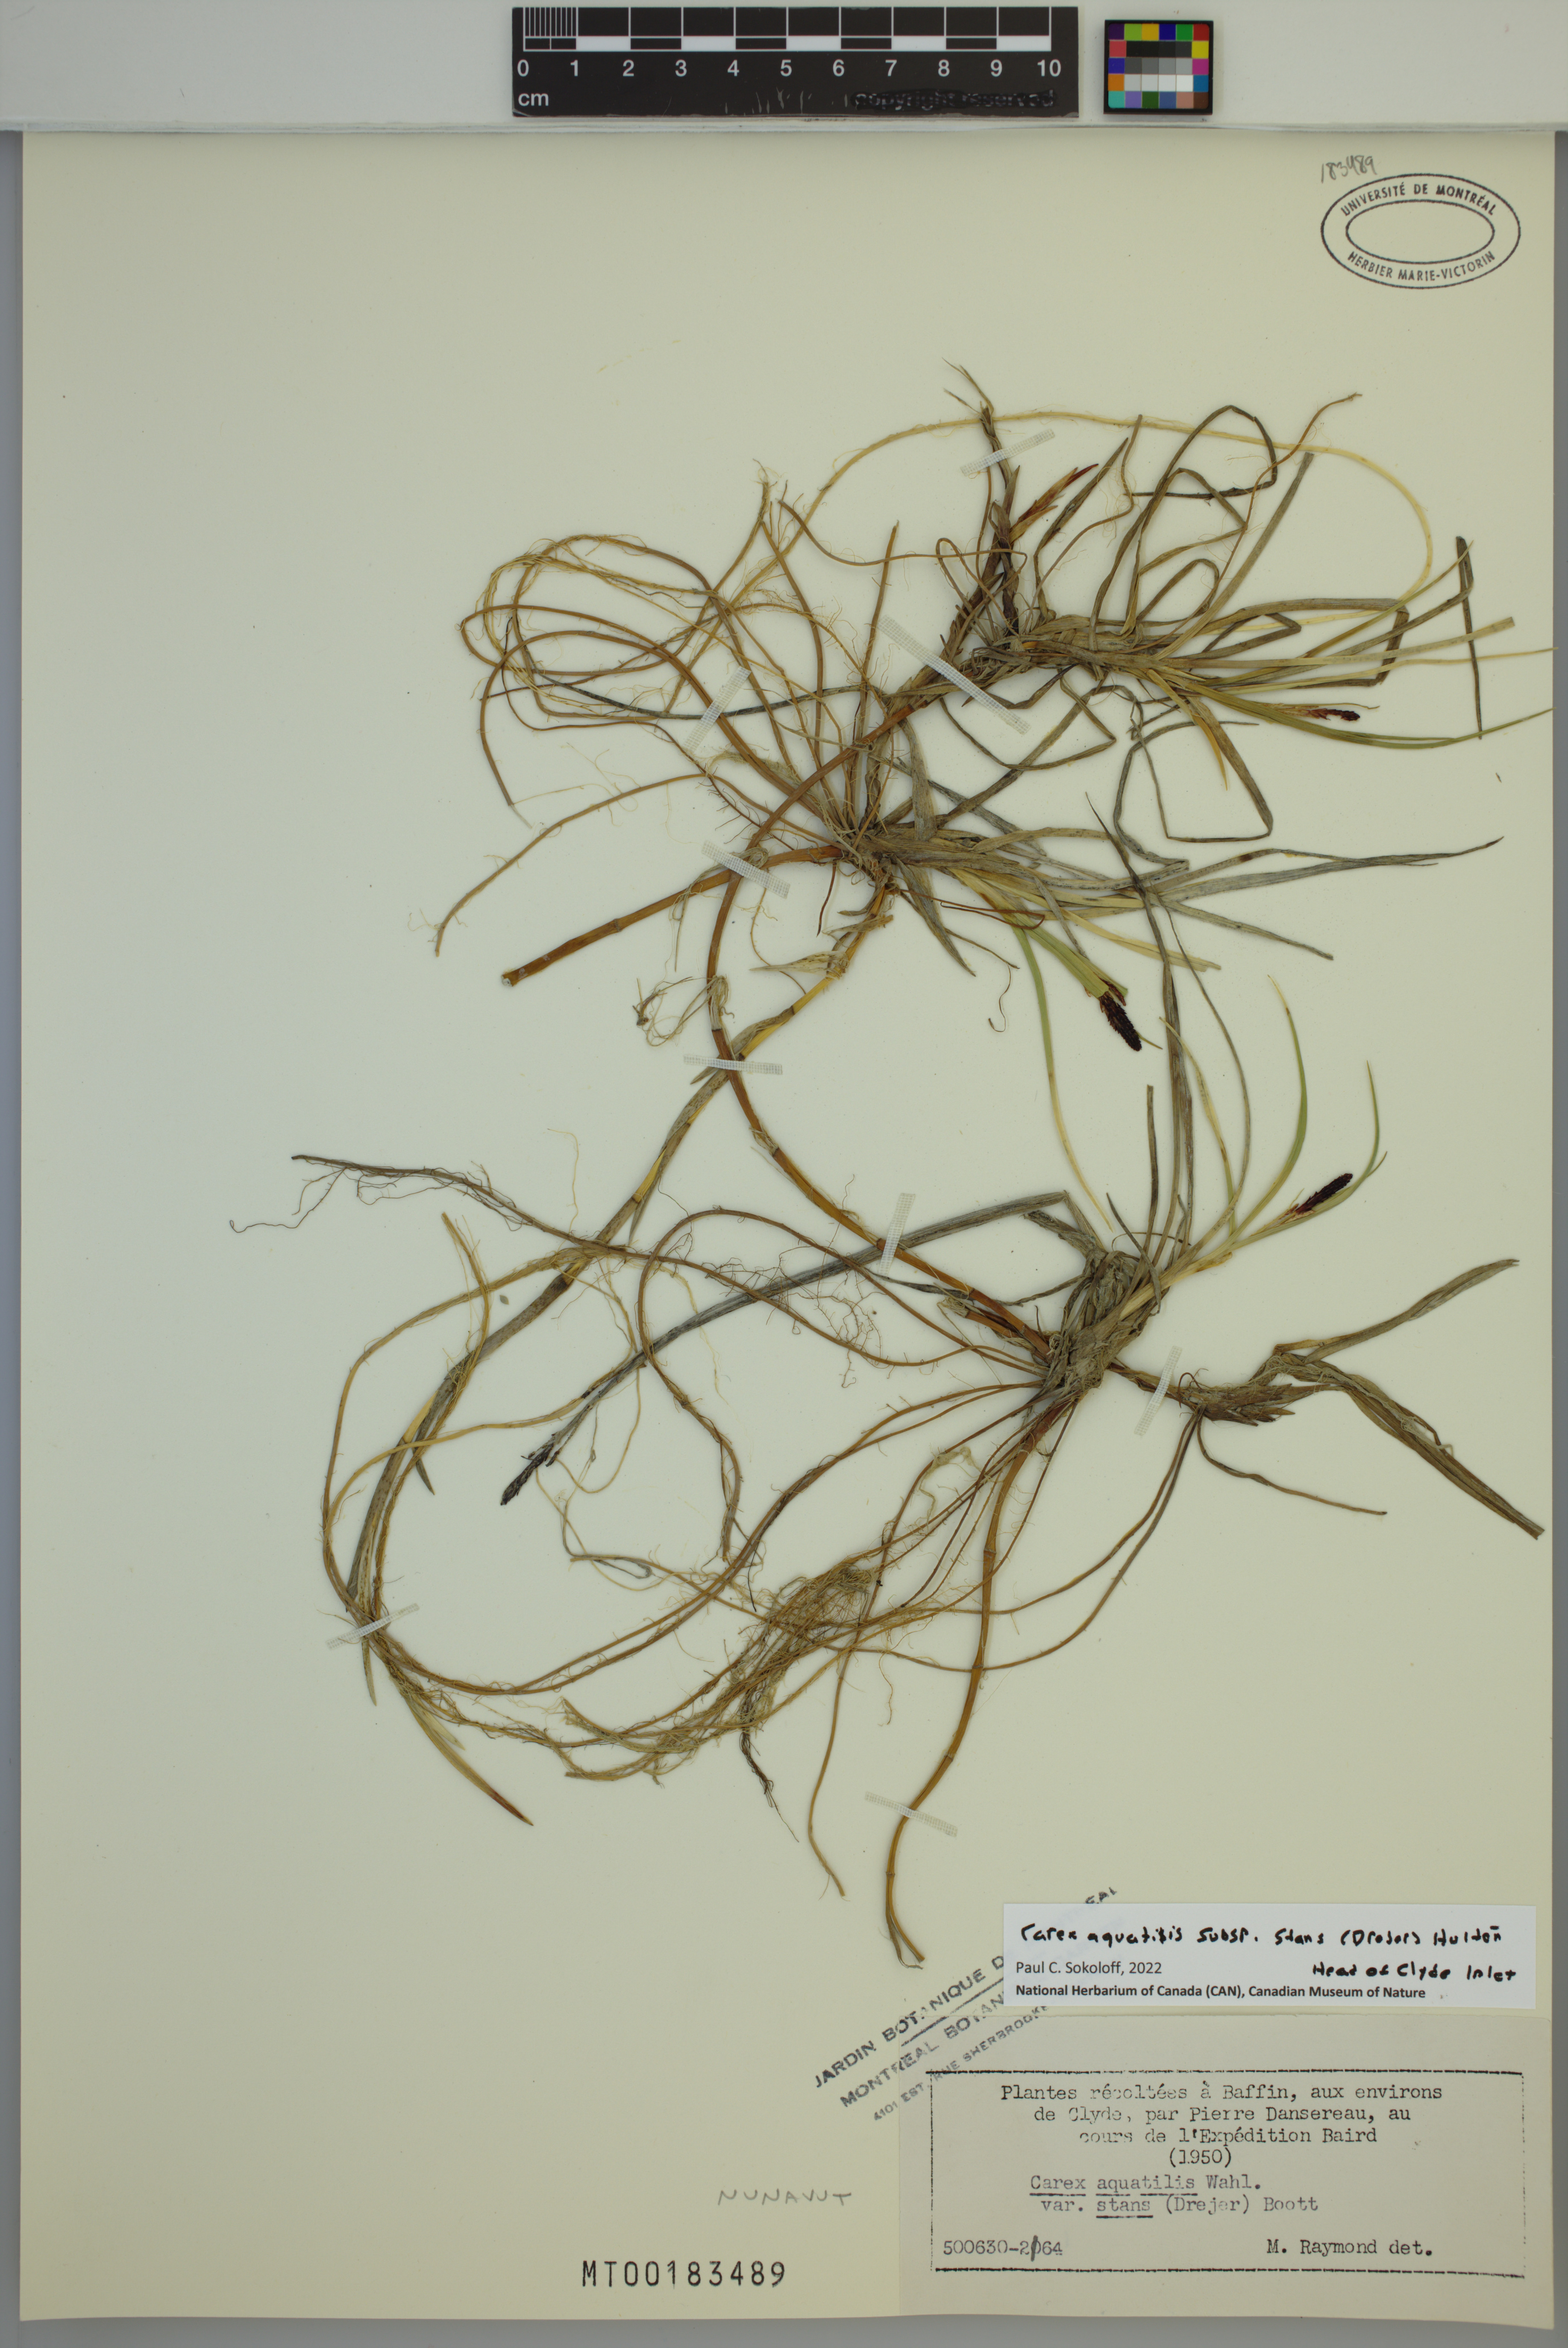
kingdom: Plantae
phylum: Tracheophyta
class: Liliopsida
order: Poales
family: Cyperaceae
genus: Carex
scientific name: Carex aquatilis
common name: Water sedge
